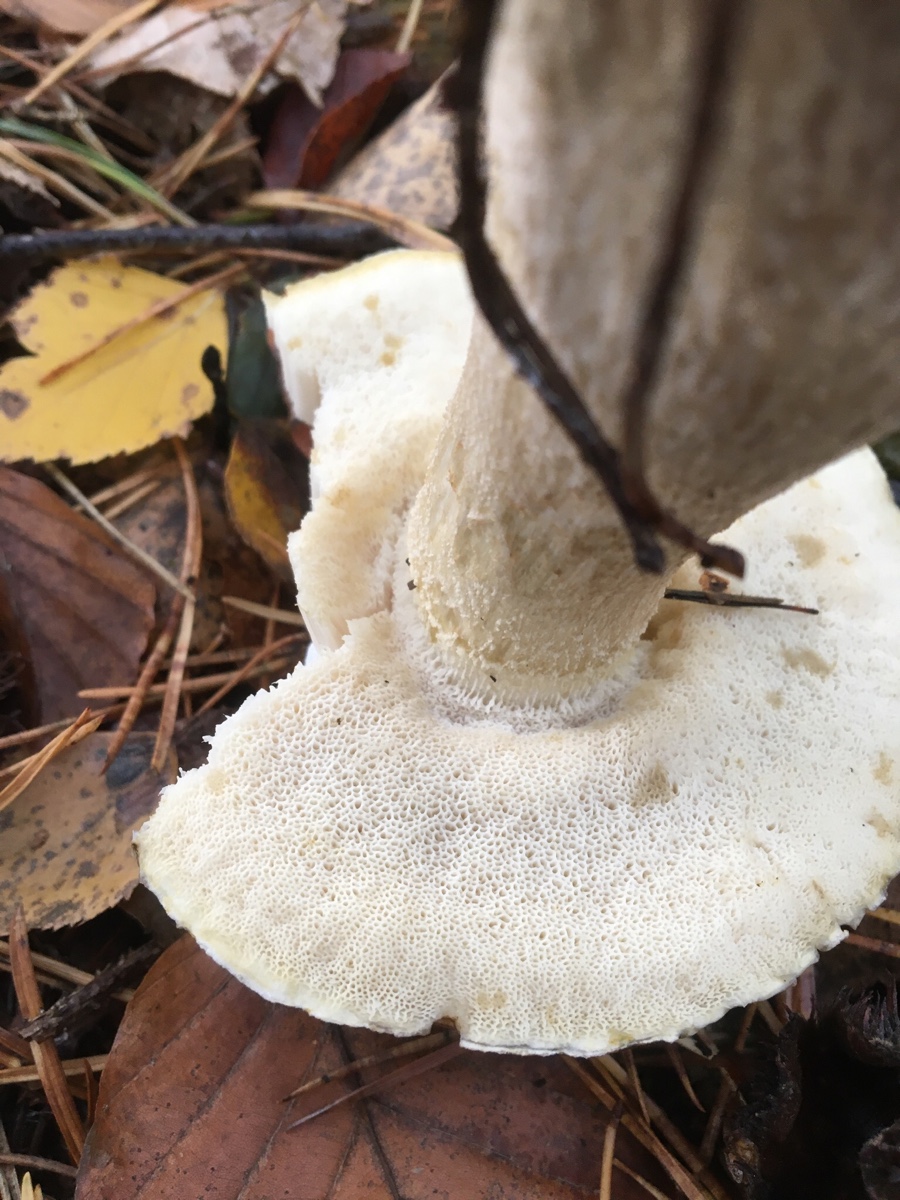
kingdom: Fungi
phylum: Basidiomycota
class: Agaricomycetes
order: Boletales
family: Boletaceae
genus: Boletus
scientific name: Boletus edulis
